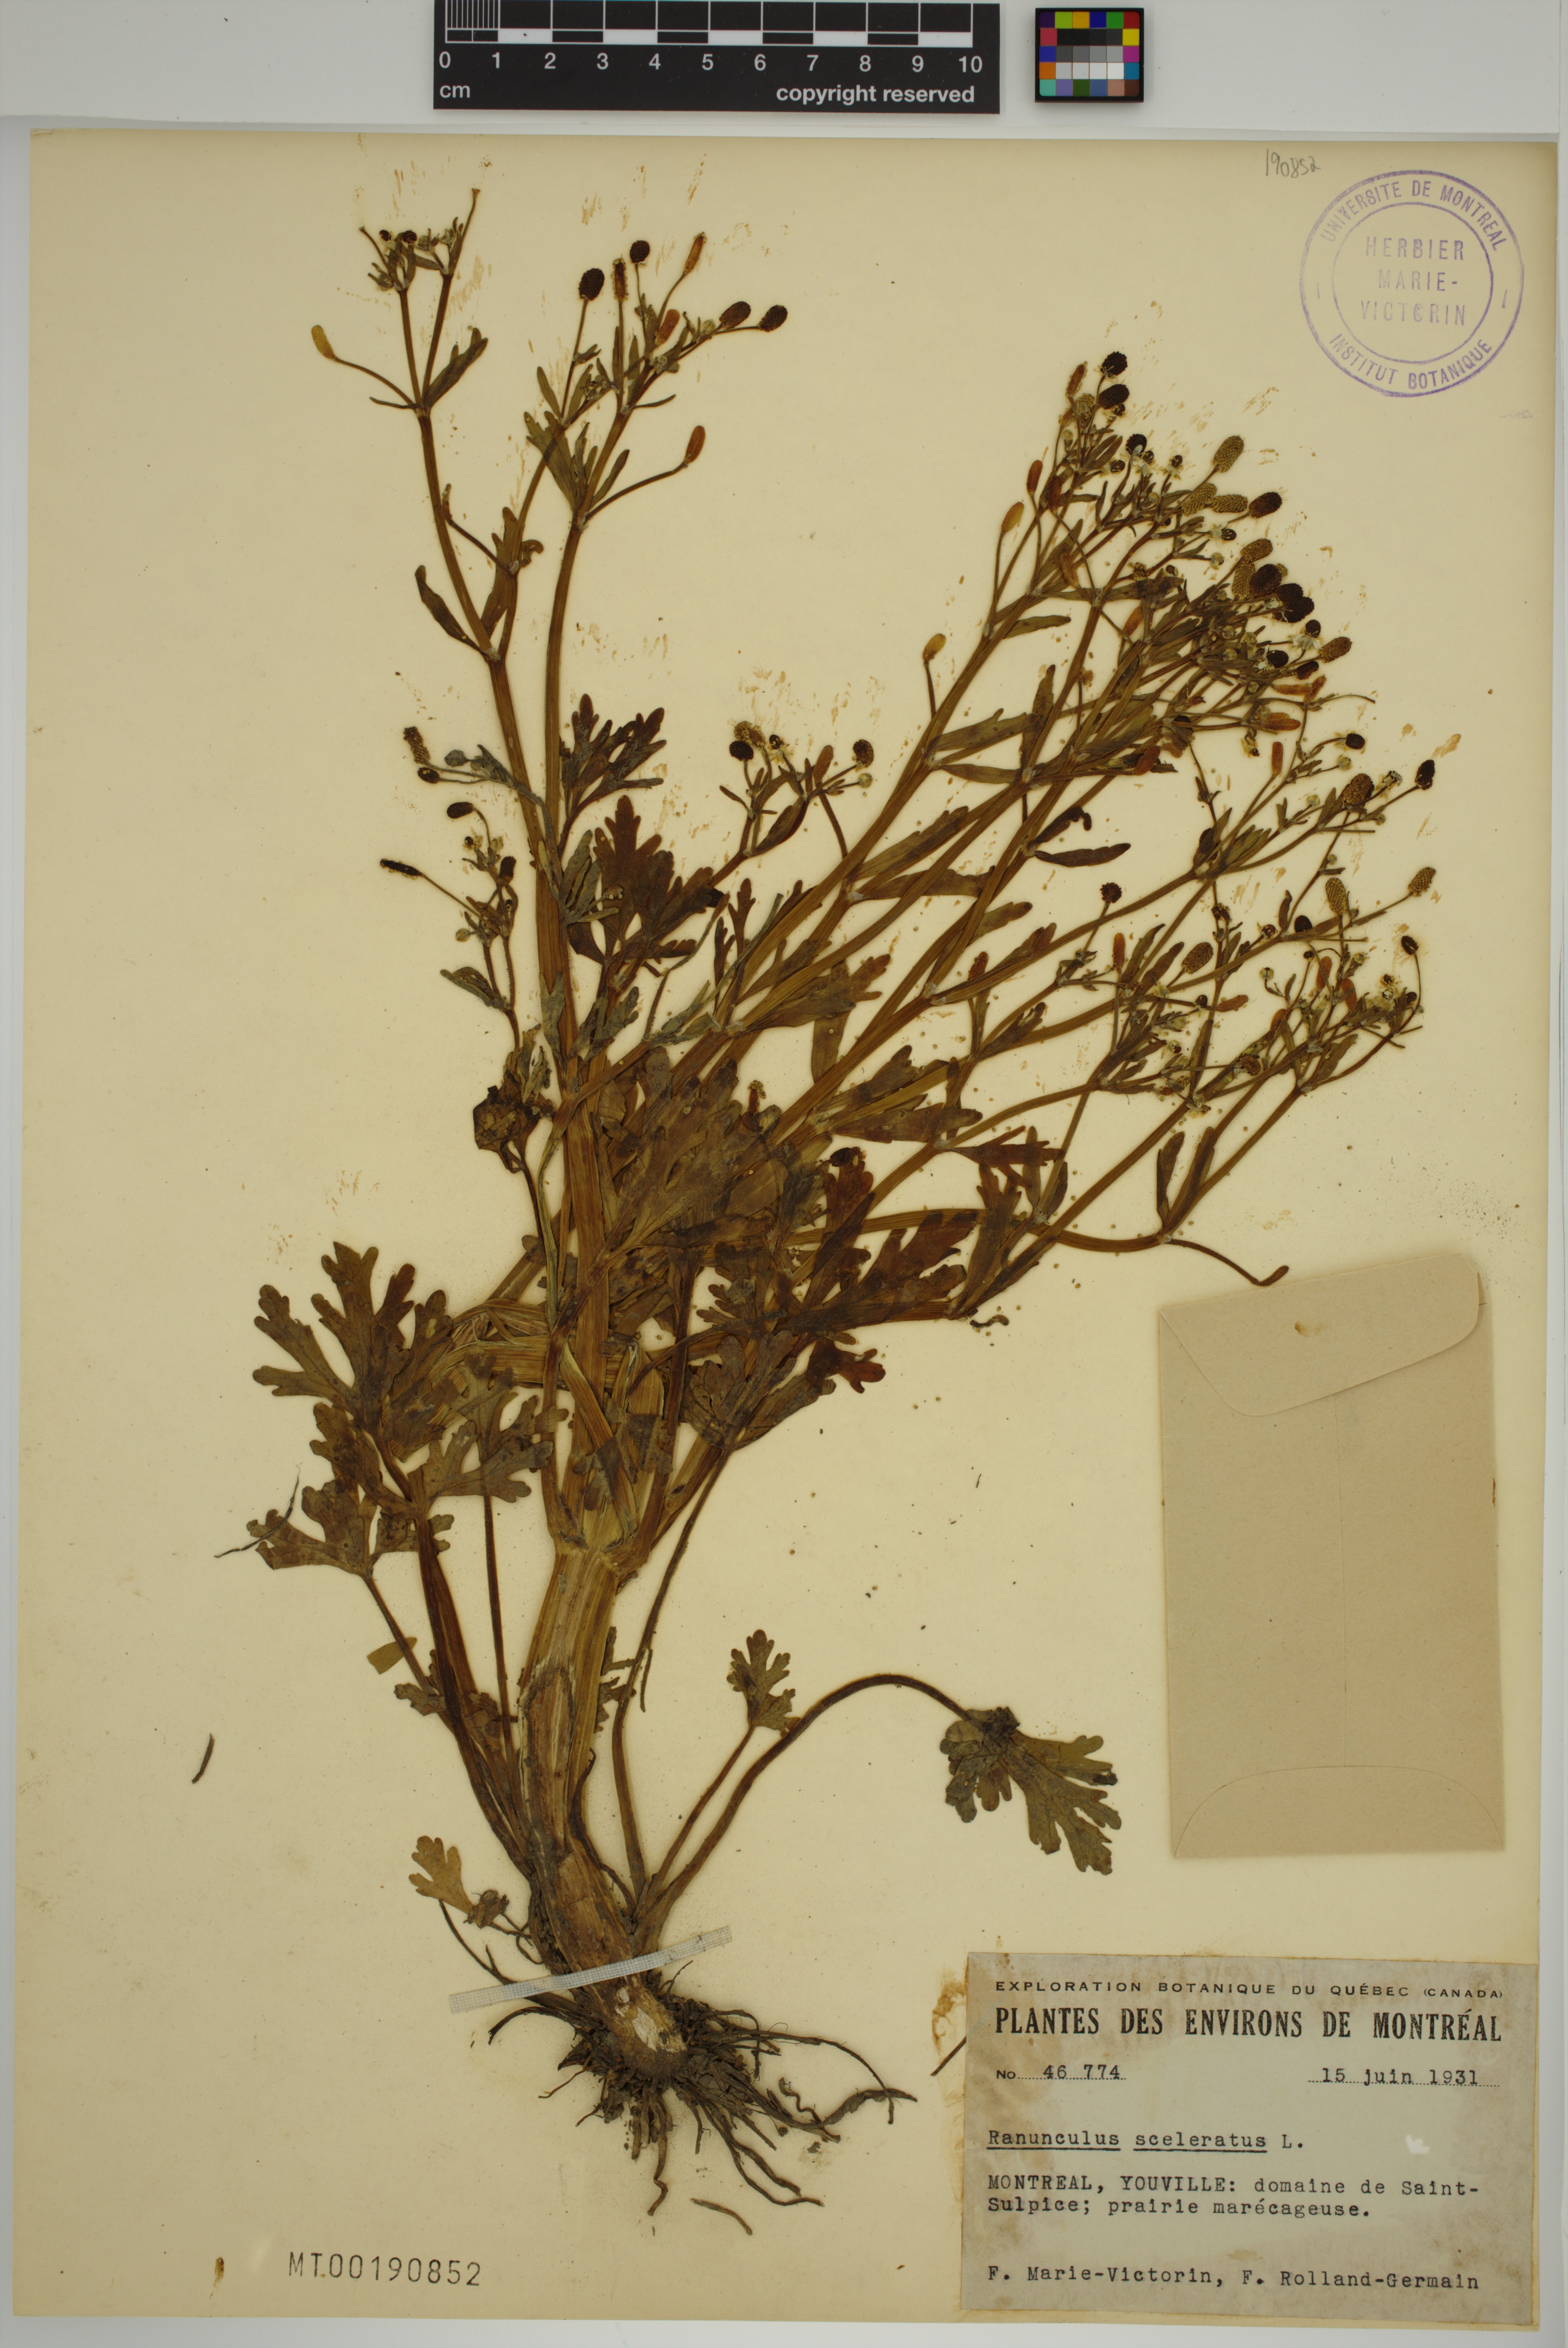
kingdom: Plantae
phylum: Tracheophyta
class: Magnoliopsida
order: Ranunculales
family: Ranunculaceae
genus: Ranunculus
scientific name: Ranunculus sceleratus
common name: Celery-leaved buttercup
